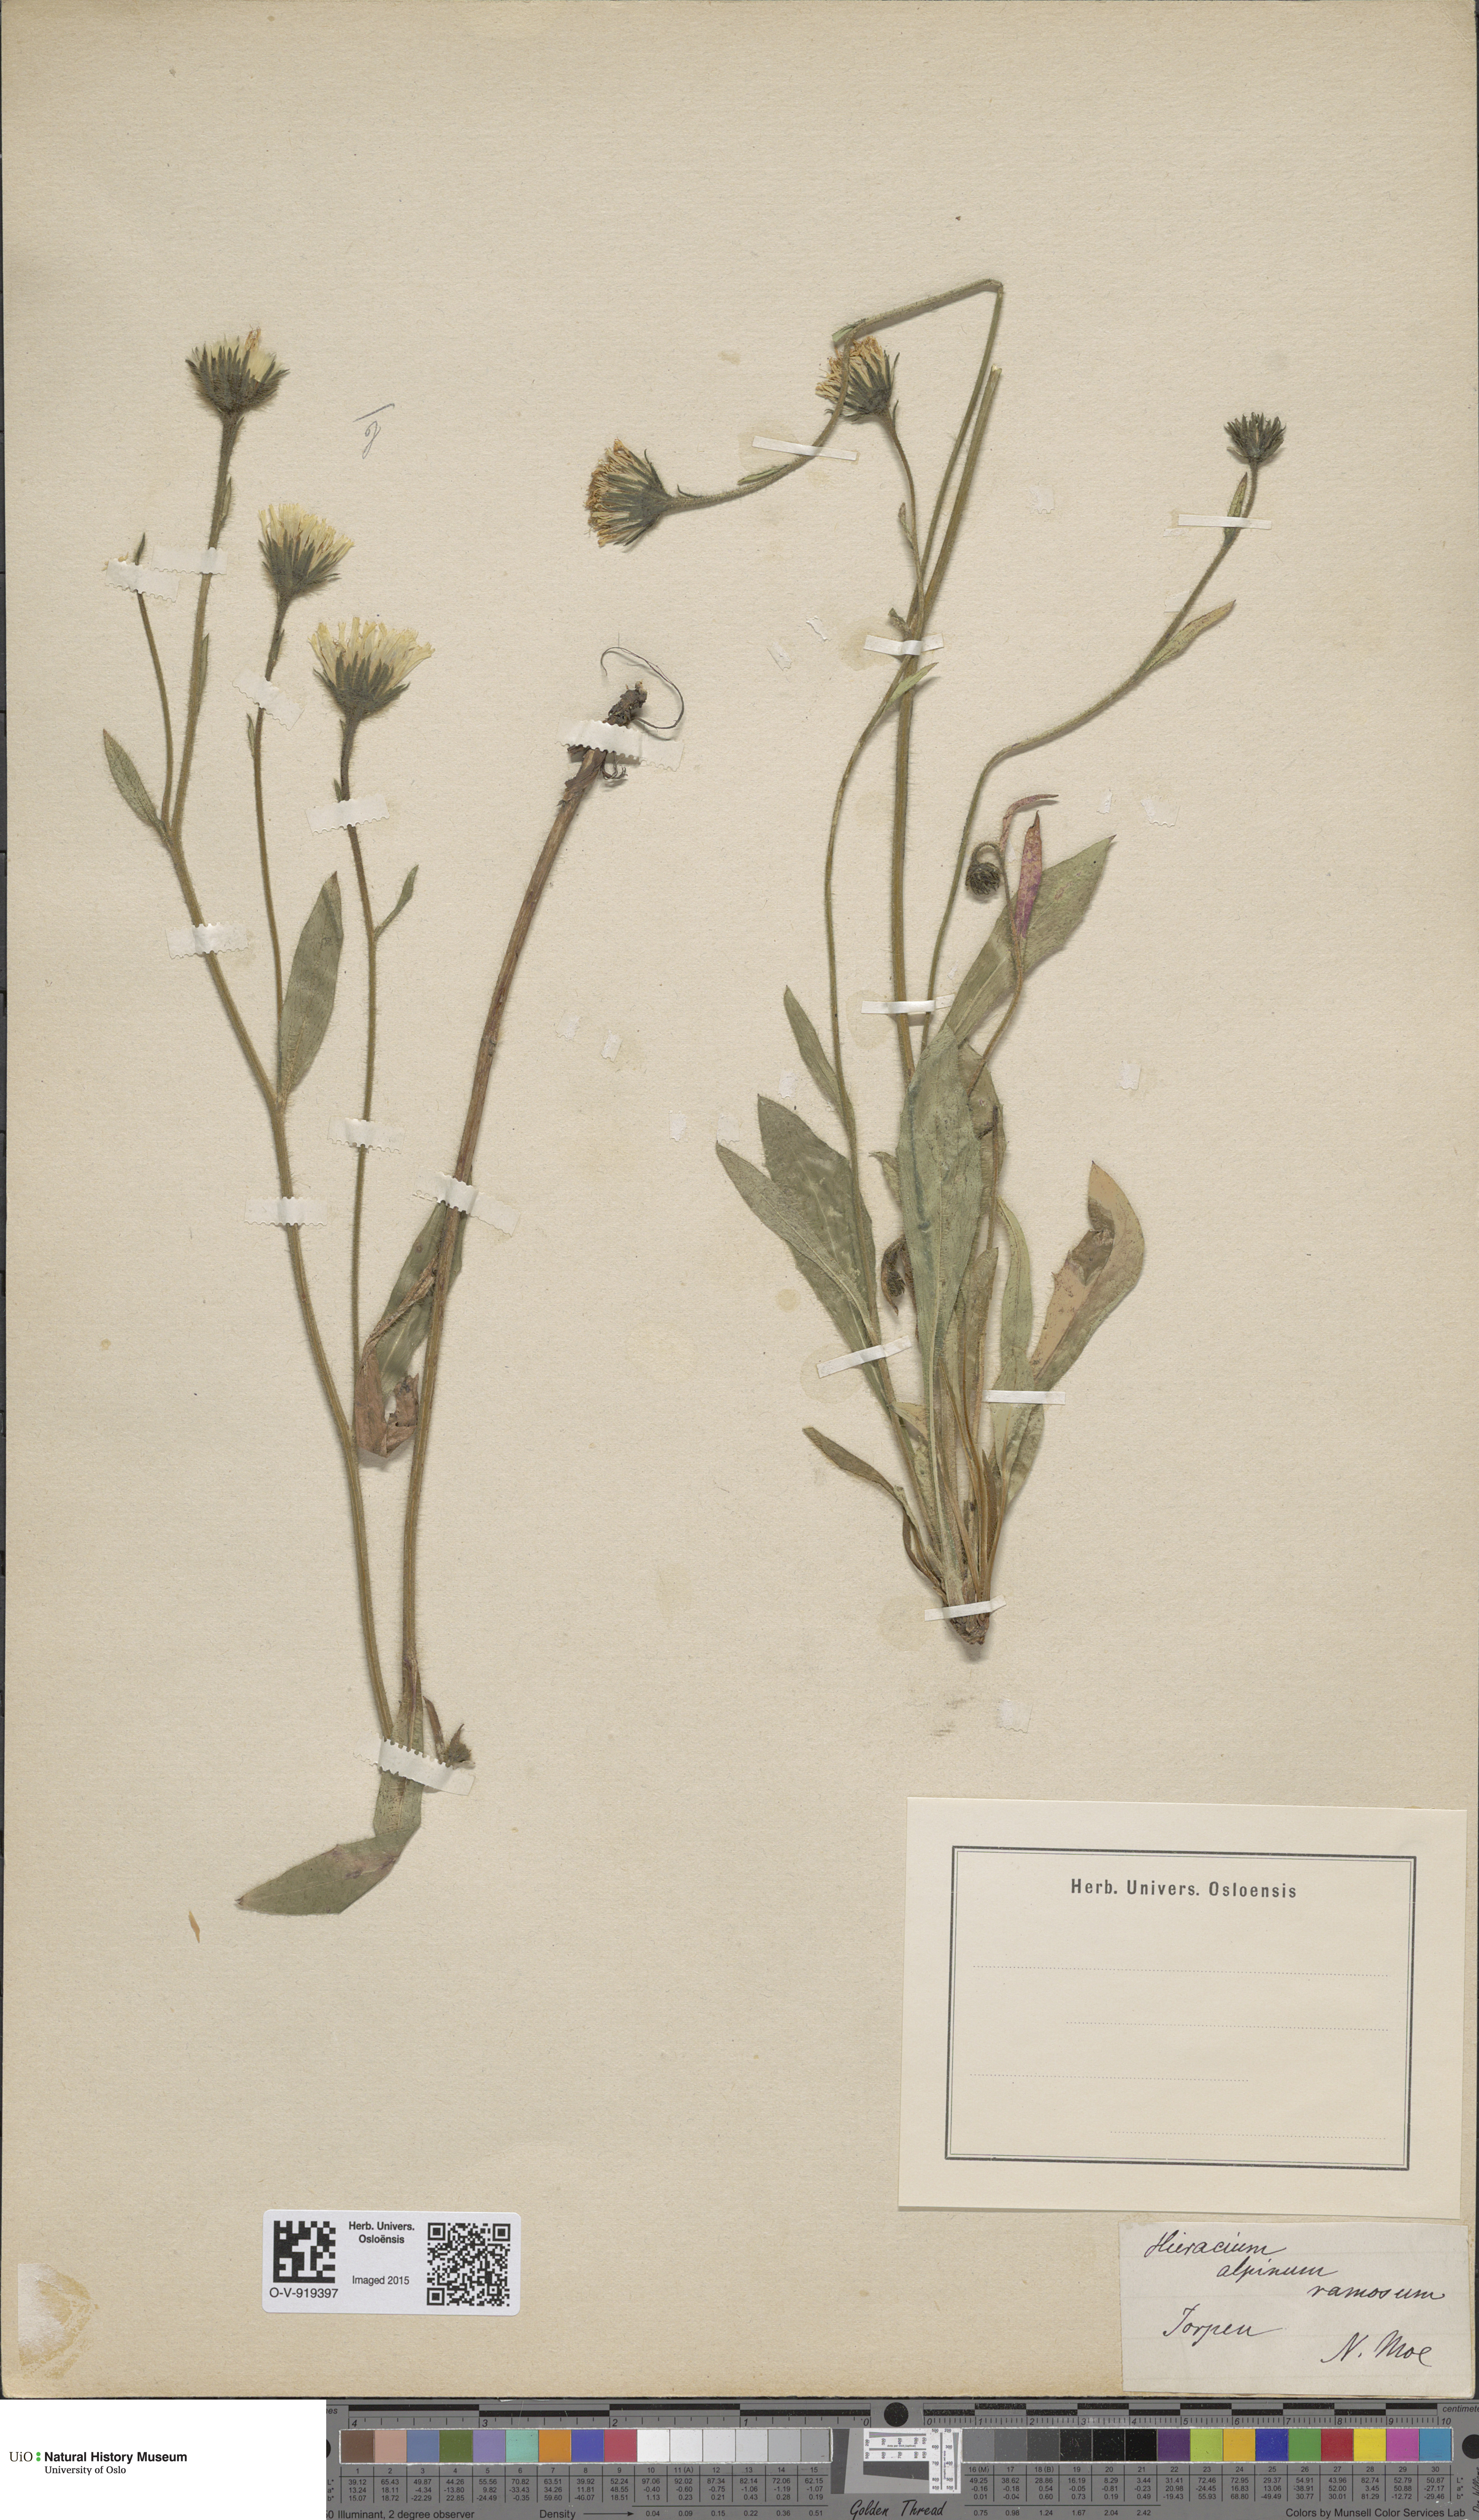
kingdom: Plantae
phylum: Tracheophyta
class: Magnoliopsida
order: Asterales
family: Asteraceae
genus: Hieracium
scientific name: Hieracium alpinum
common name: Alpine hawkweed
